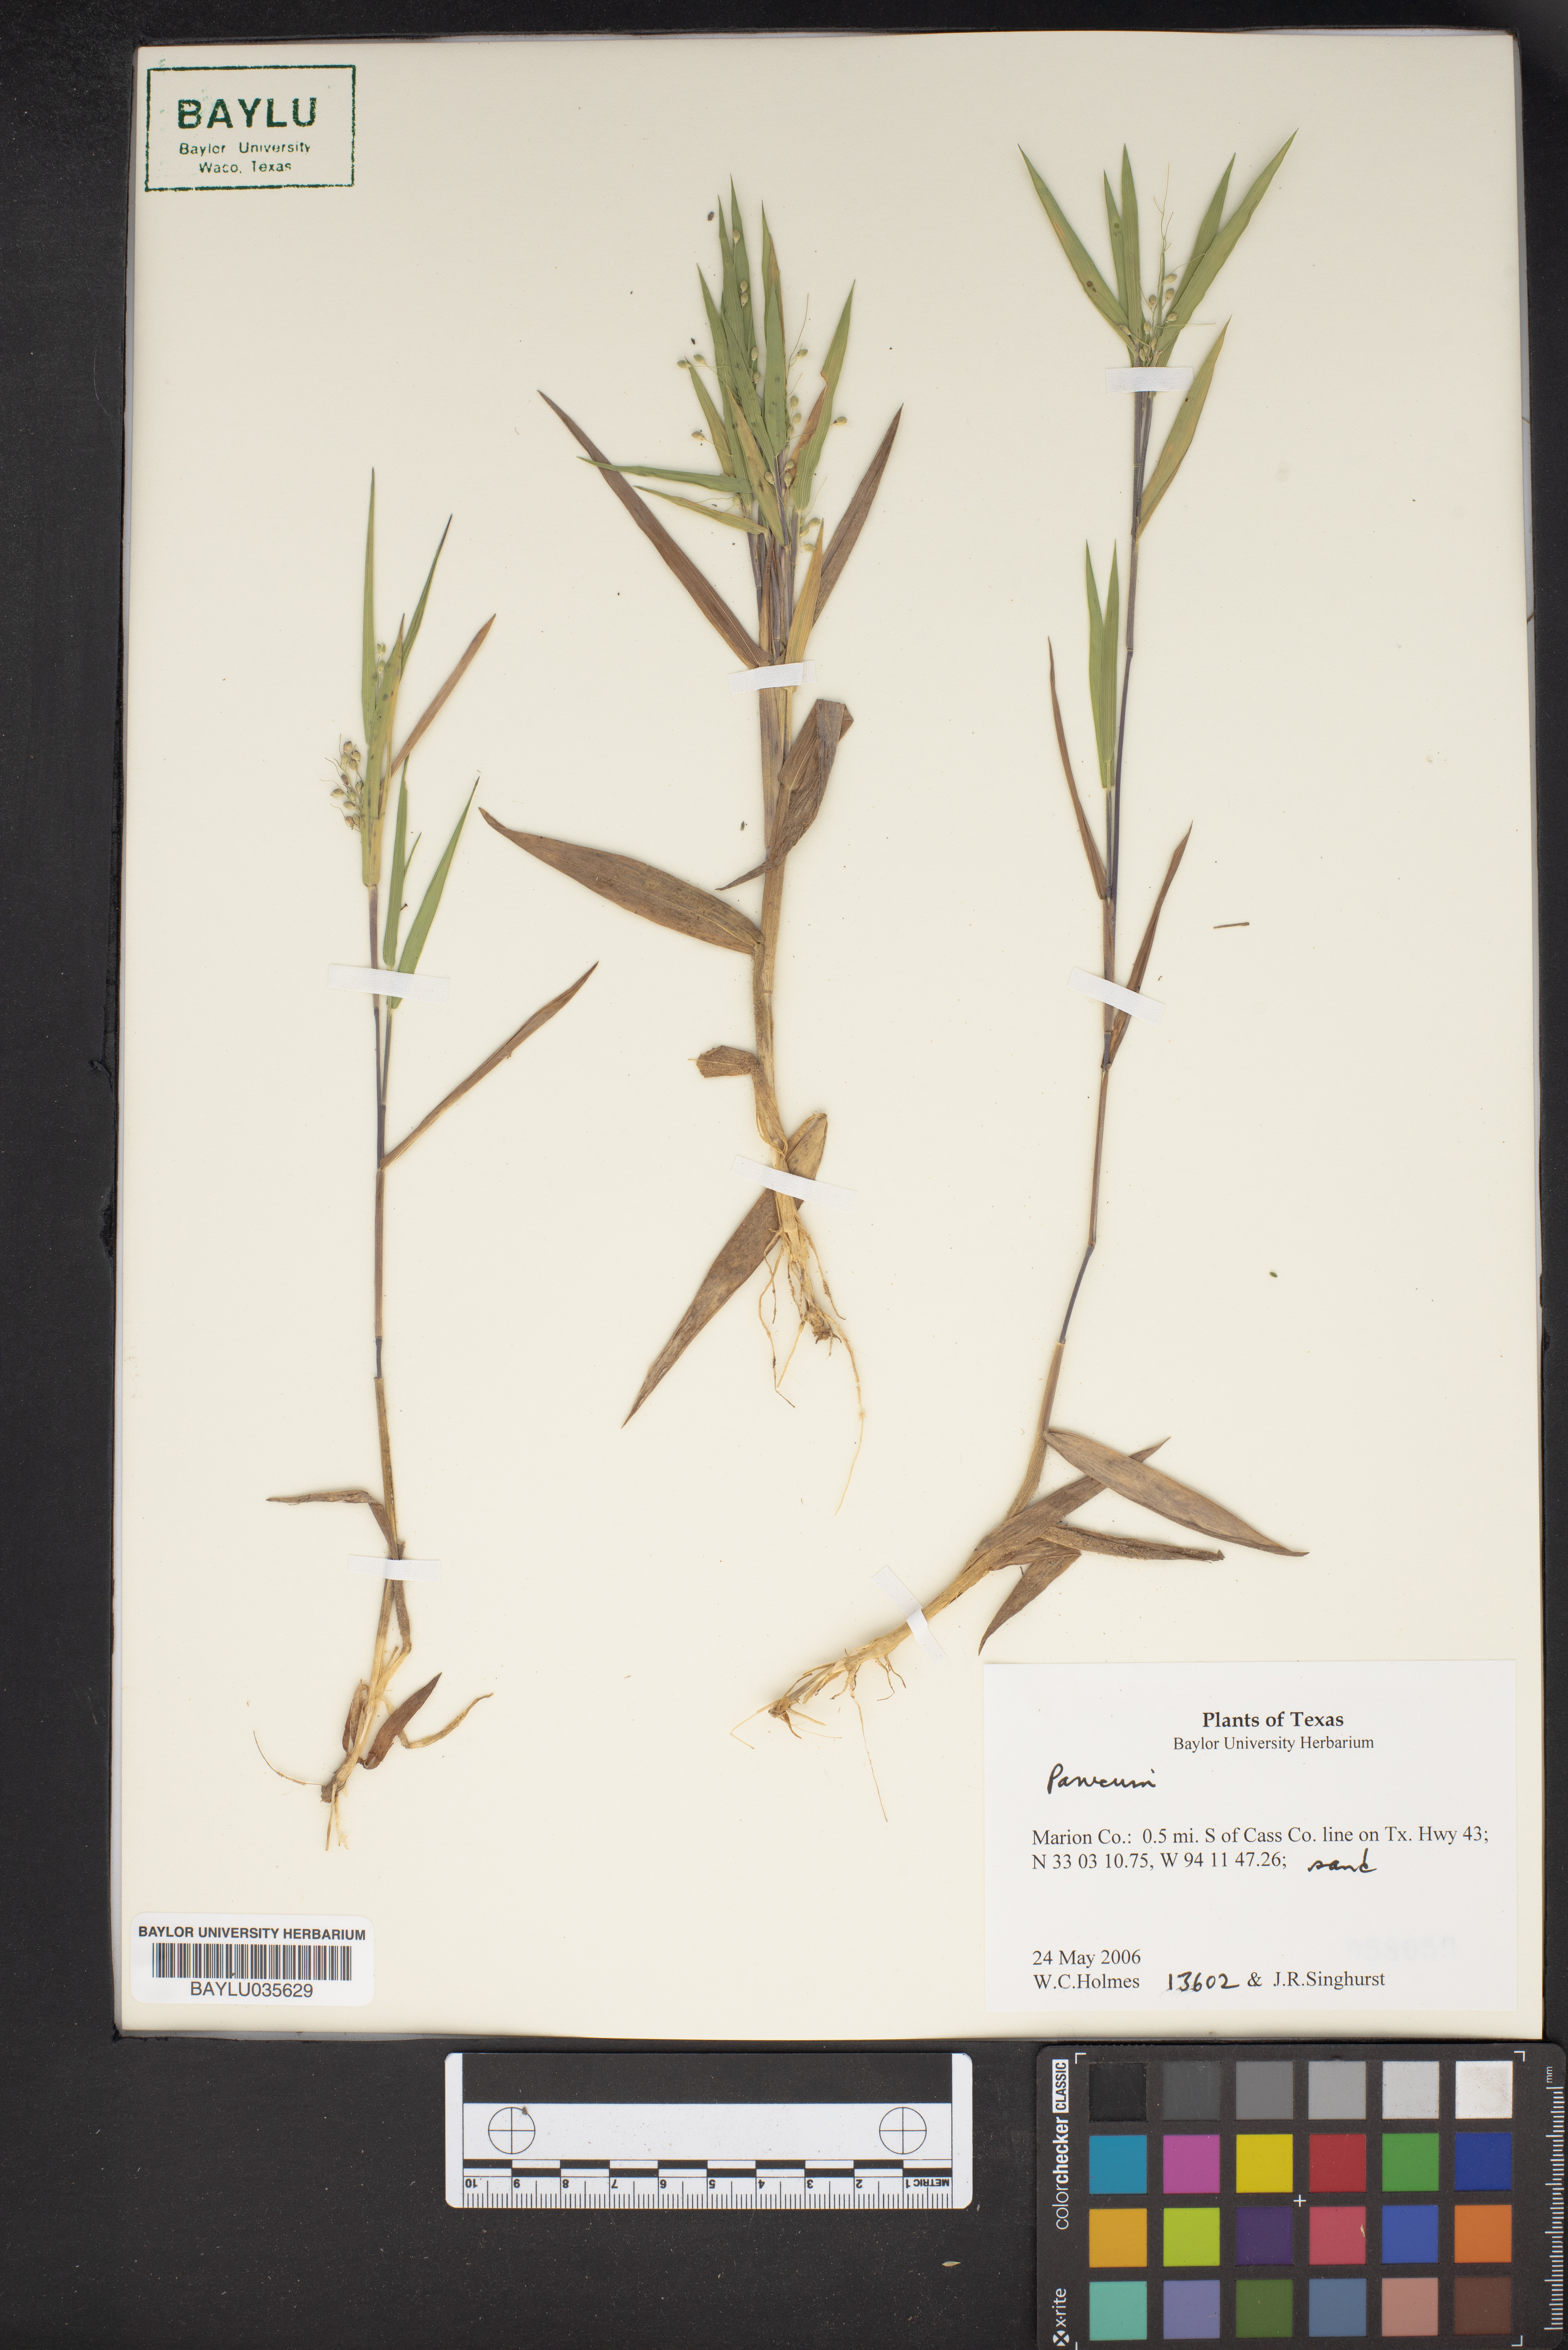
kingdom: Plantae
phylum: Tracheophyta
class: Liliopsida
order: Poales
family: Poaceae
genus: Panicum
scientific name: Panicum
